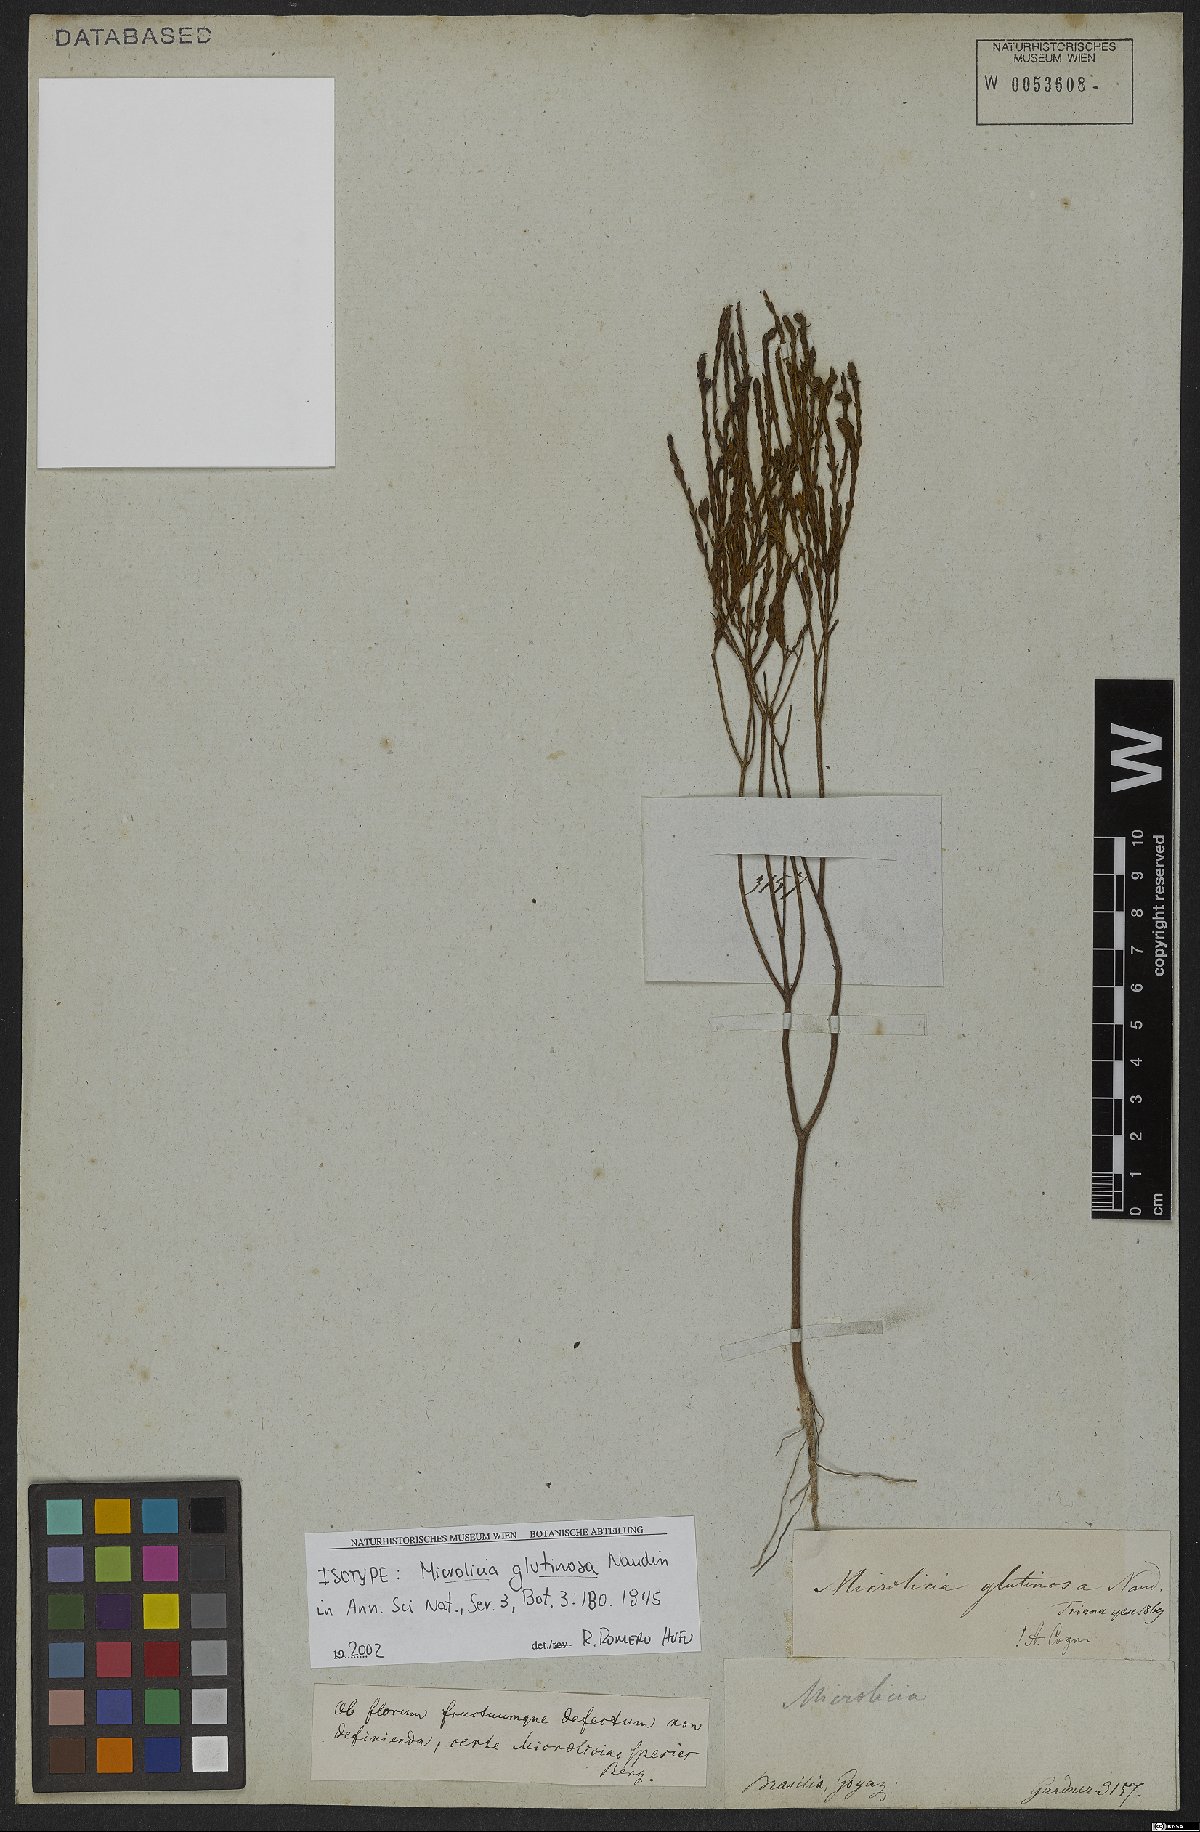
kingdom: Plantae
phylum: Tracheophyta
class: Magnoliopsida
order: Myrtales
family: Melastomataceae
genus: Microlicia
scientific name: Microlicia glutinosa
